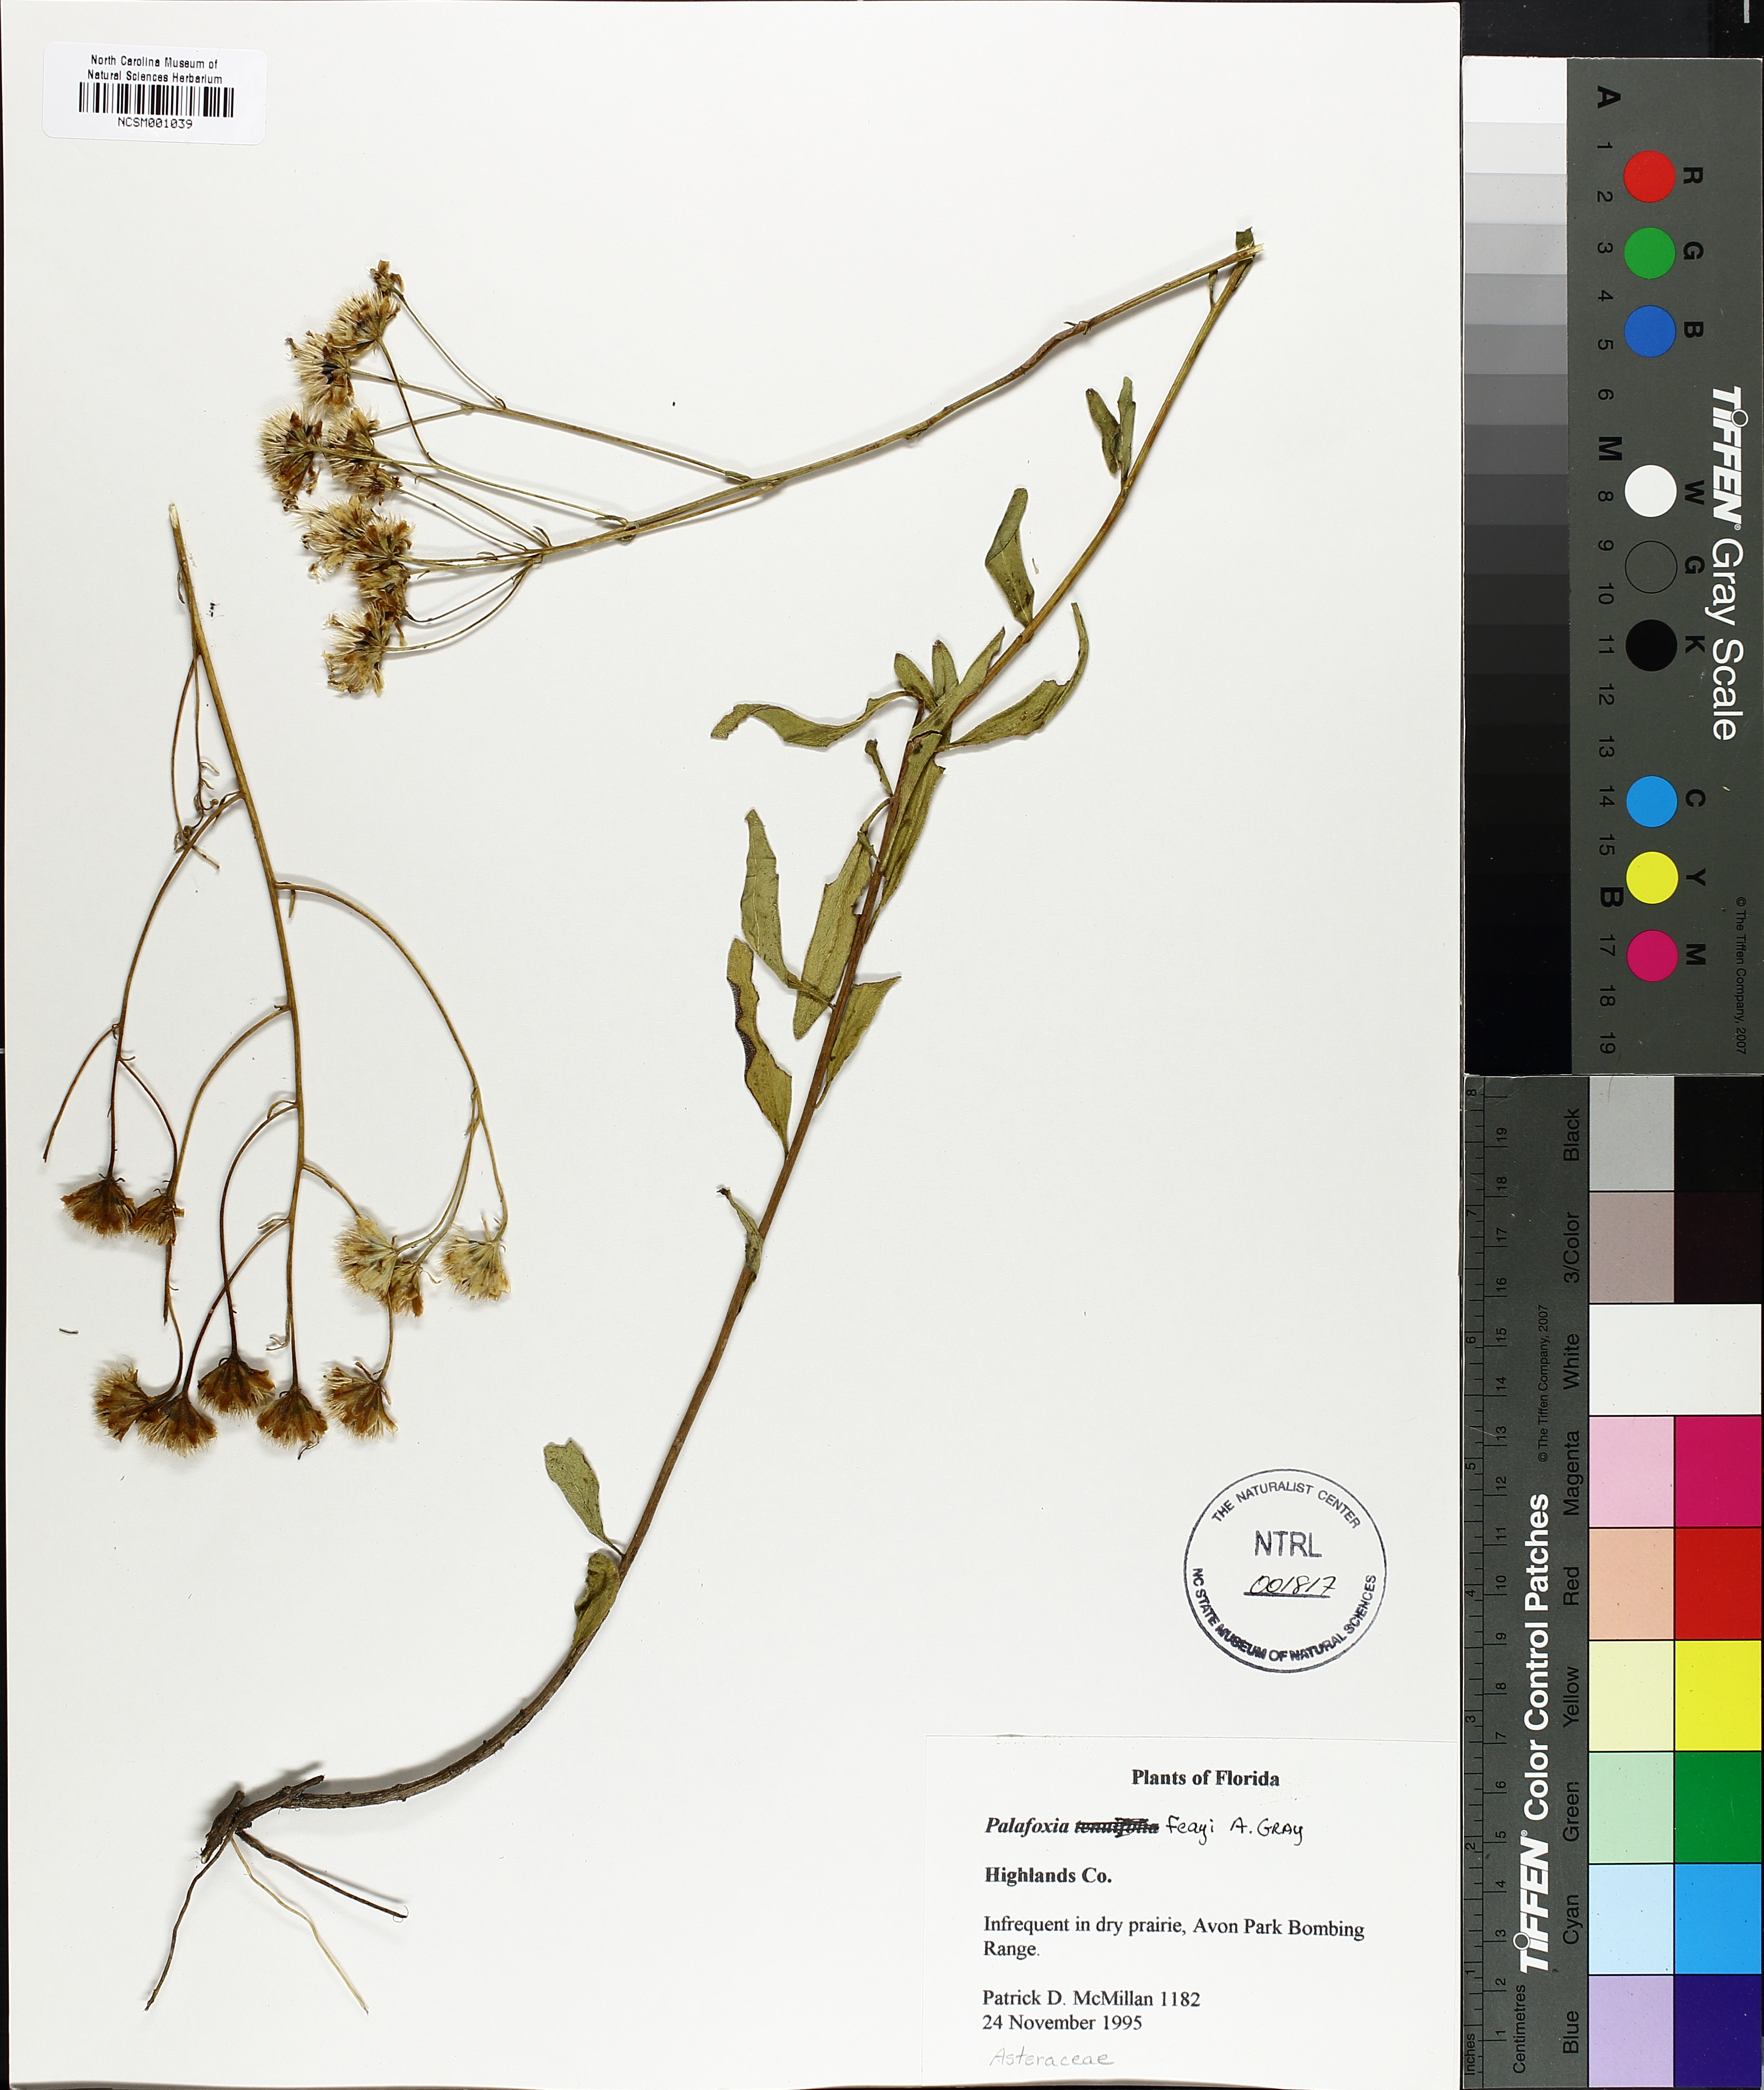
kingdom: Plantae
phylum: Tracheophyta
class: Magnoliopsida
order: Asterales
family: Asteraceae
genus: Palafoxia
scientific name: Palafoxia feayi
